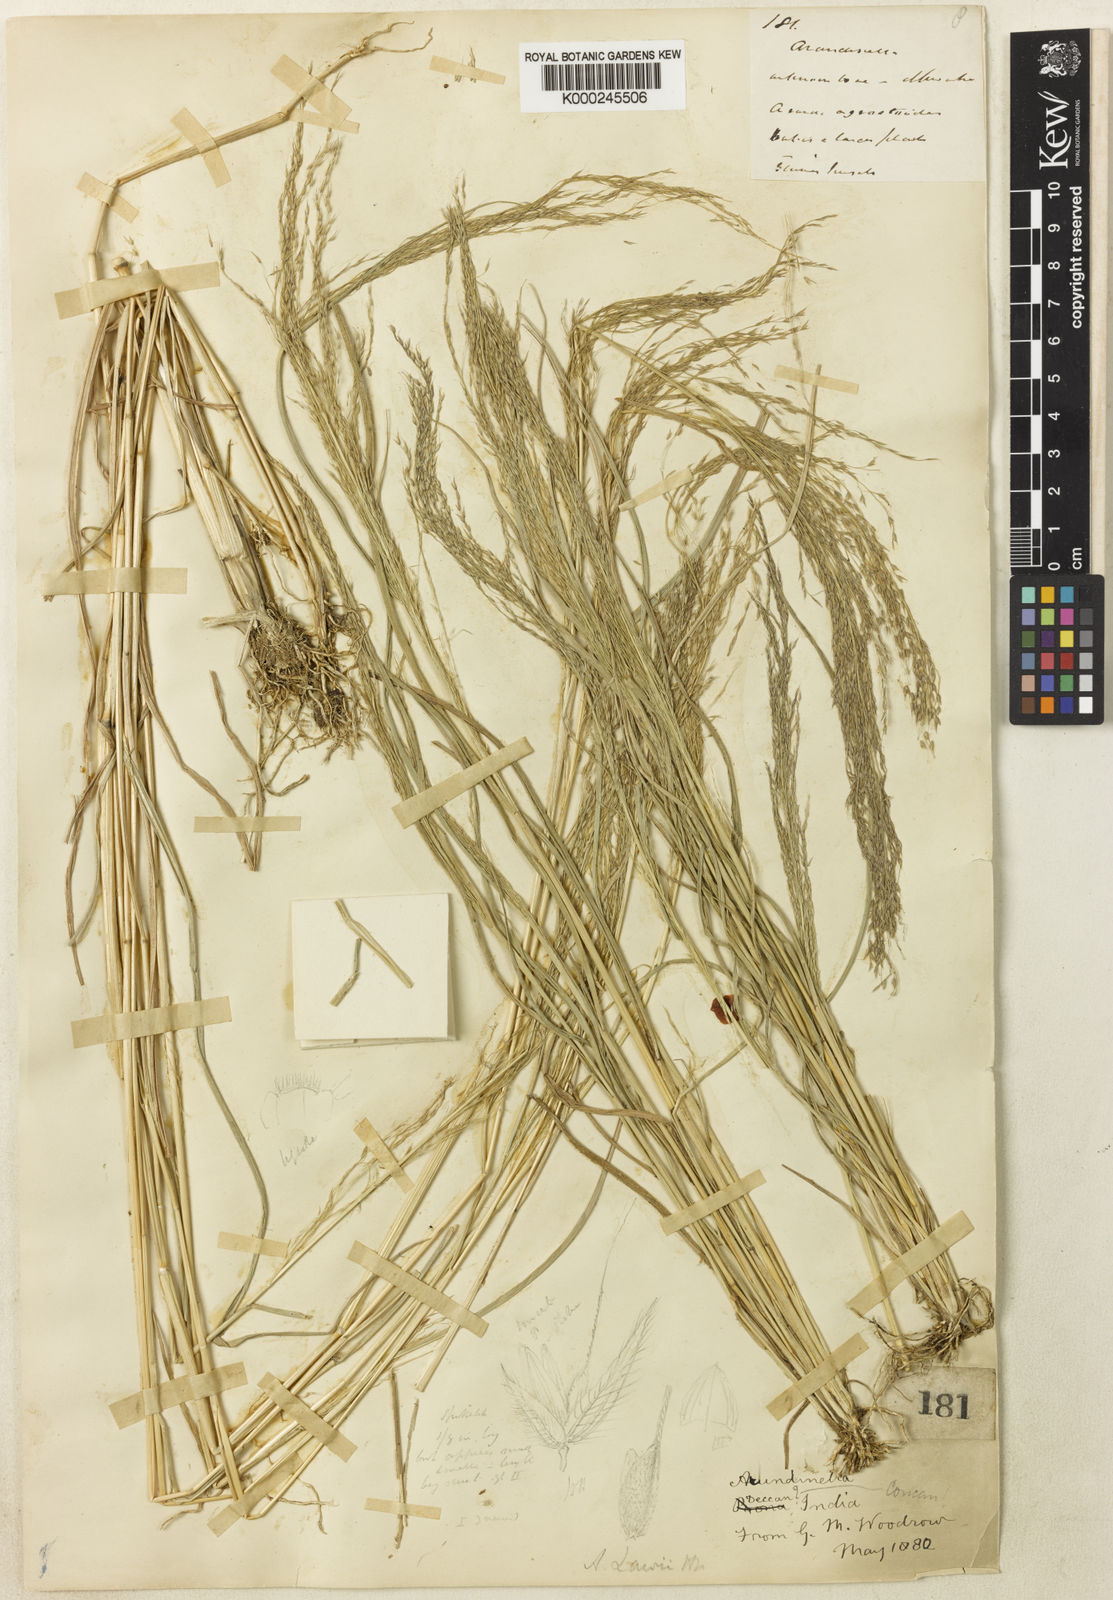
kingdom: Plantae
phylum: Tracheophyta
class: Liliopsida
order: Poales
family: Poaceae
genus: Arundinella
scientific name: Arundinella metzii
